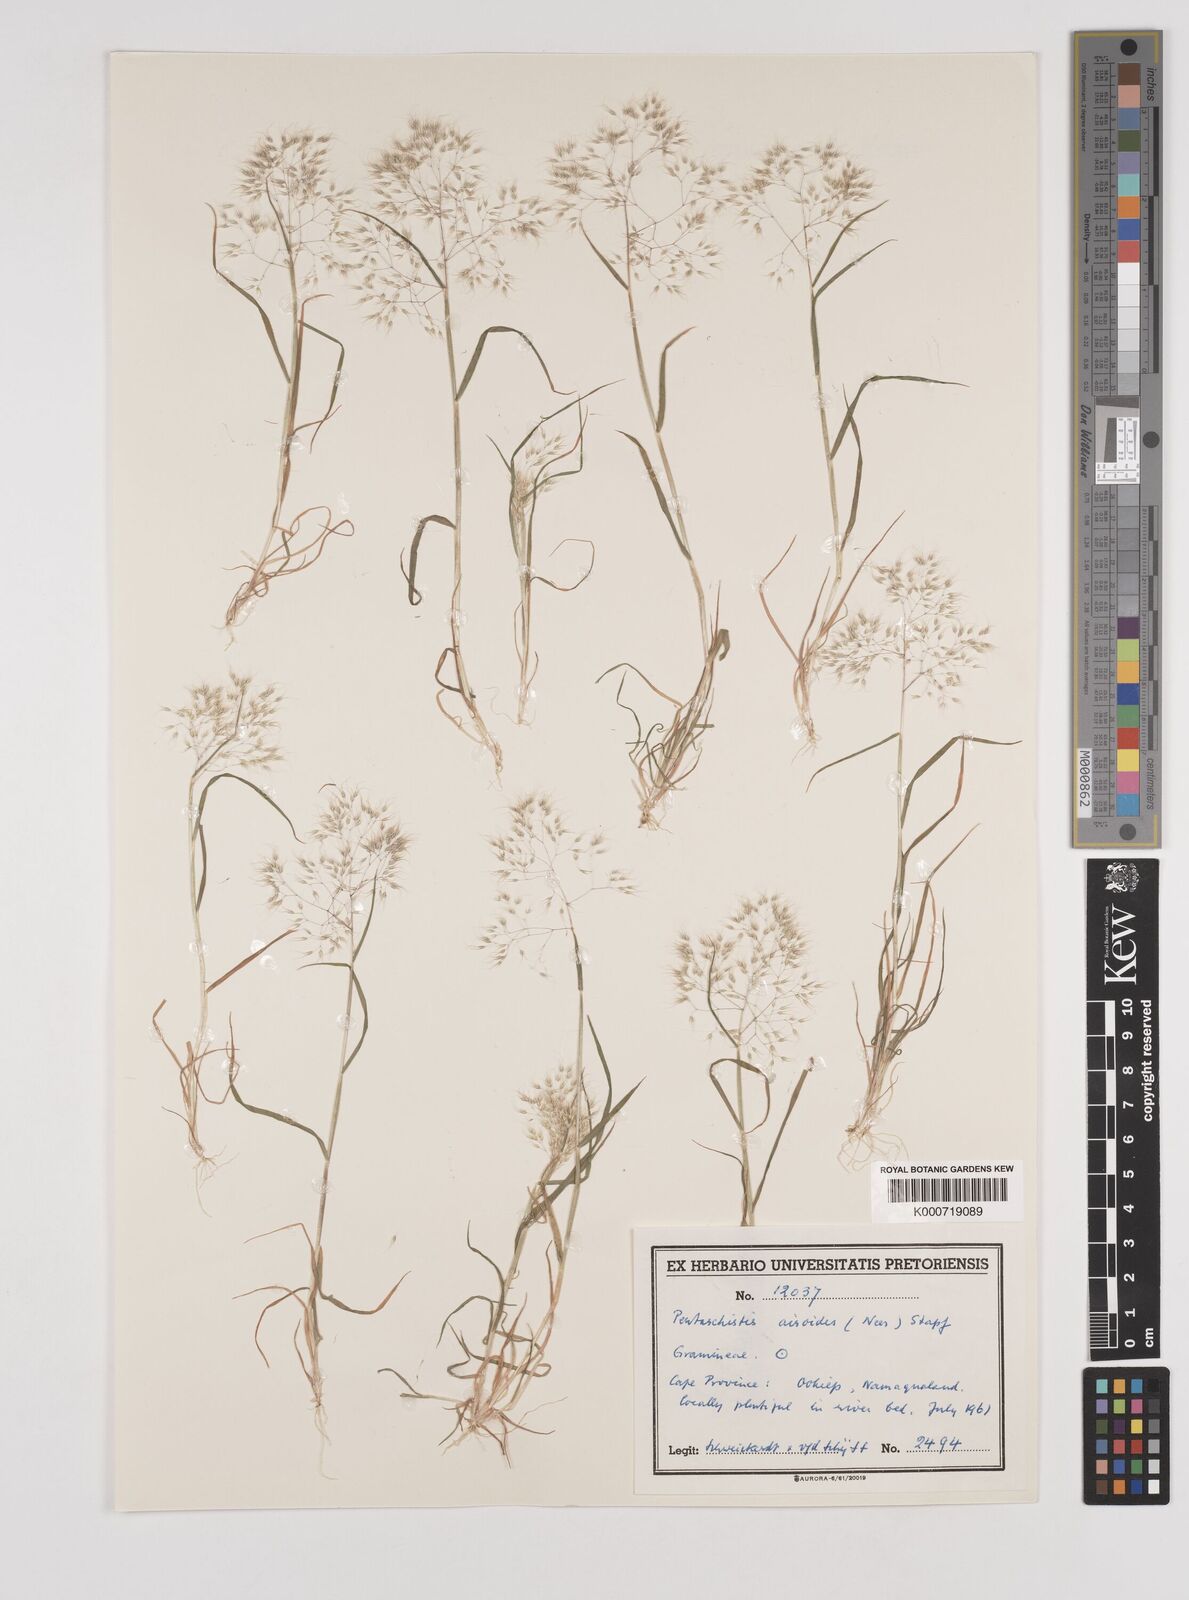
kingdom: Plantae
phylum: Tracheophyta
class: Liliopsida
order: Poales
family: Poaceae
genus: Pentameris
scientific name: Pentameris airoides
